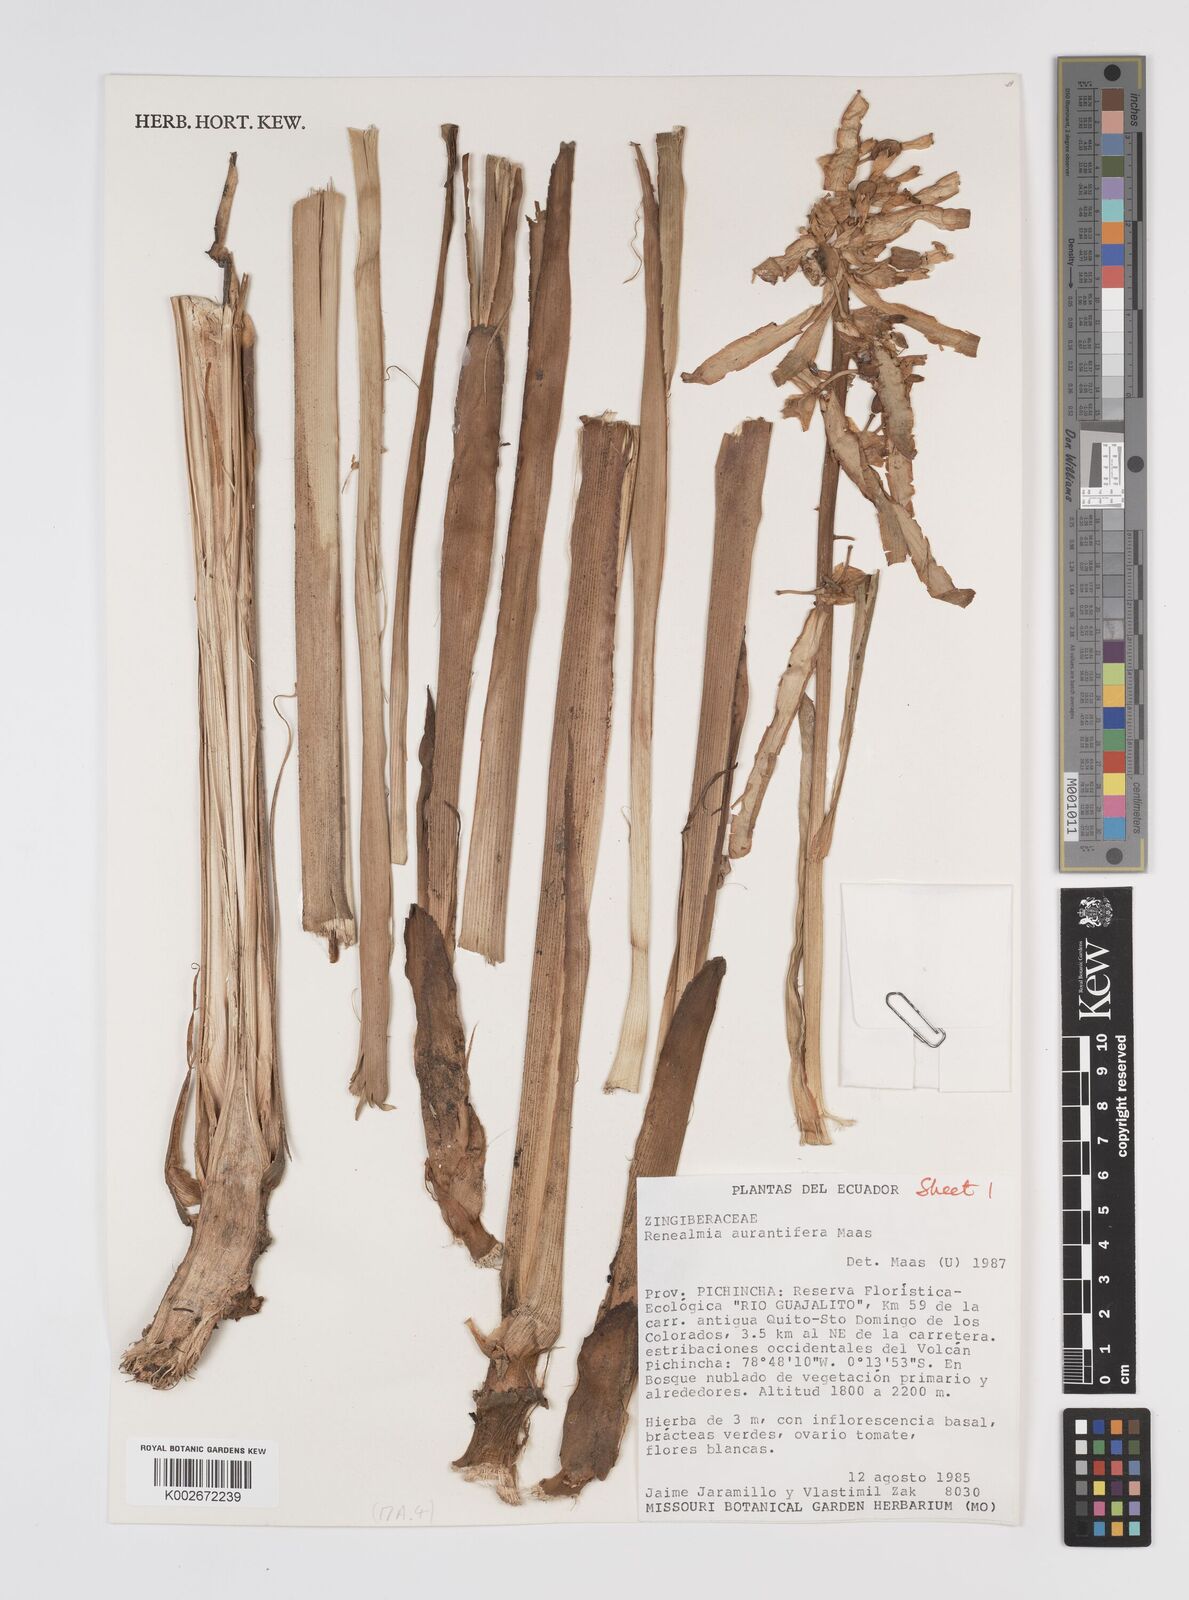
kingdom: Plantae
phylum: Tracheophyta
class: Liliopsida
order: Zingiberales
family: Zingiberaceae
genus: Renealmia
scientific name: Renealmia aurantiifera
